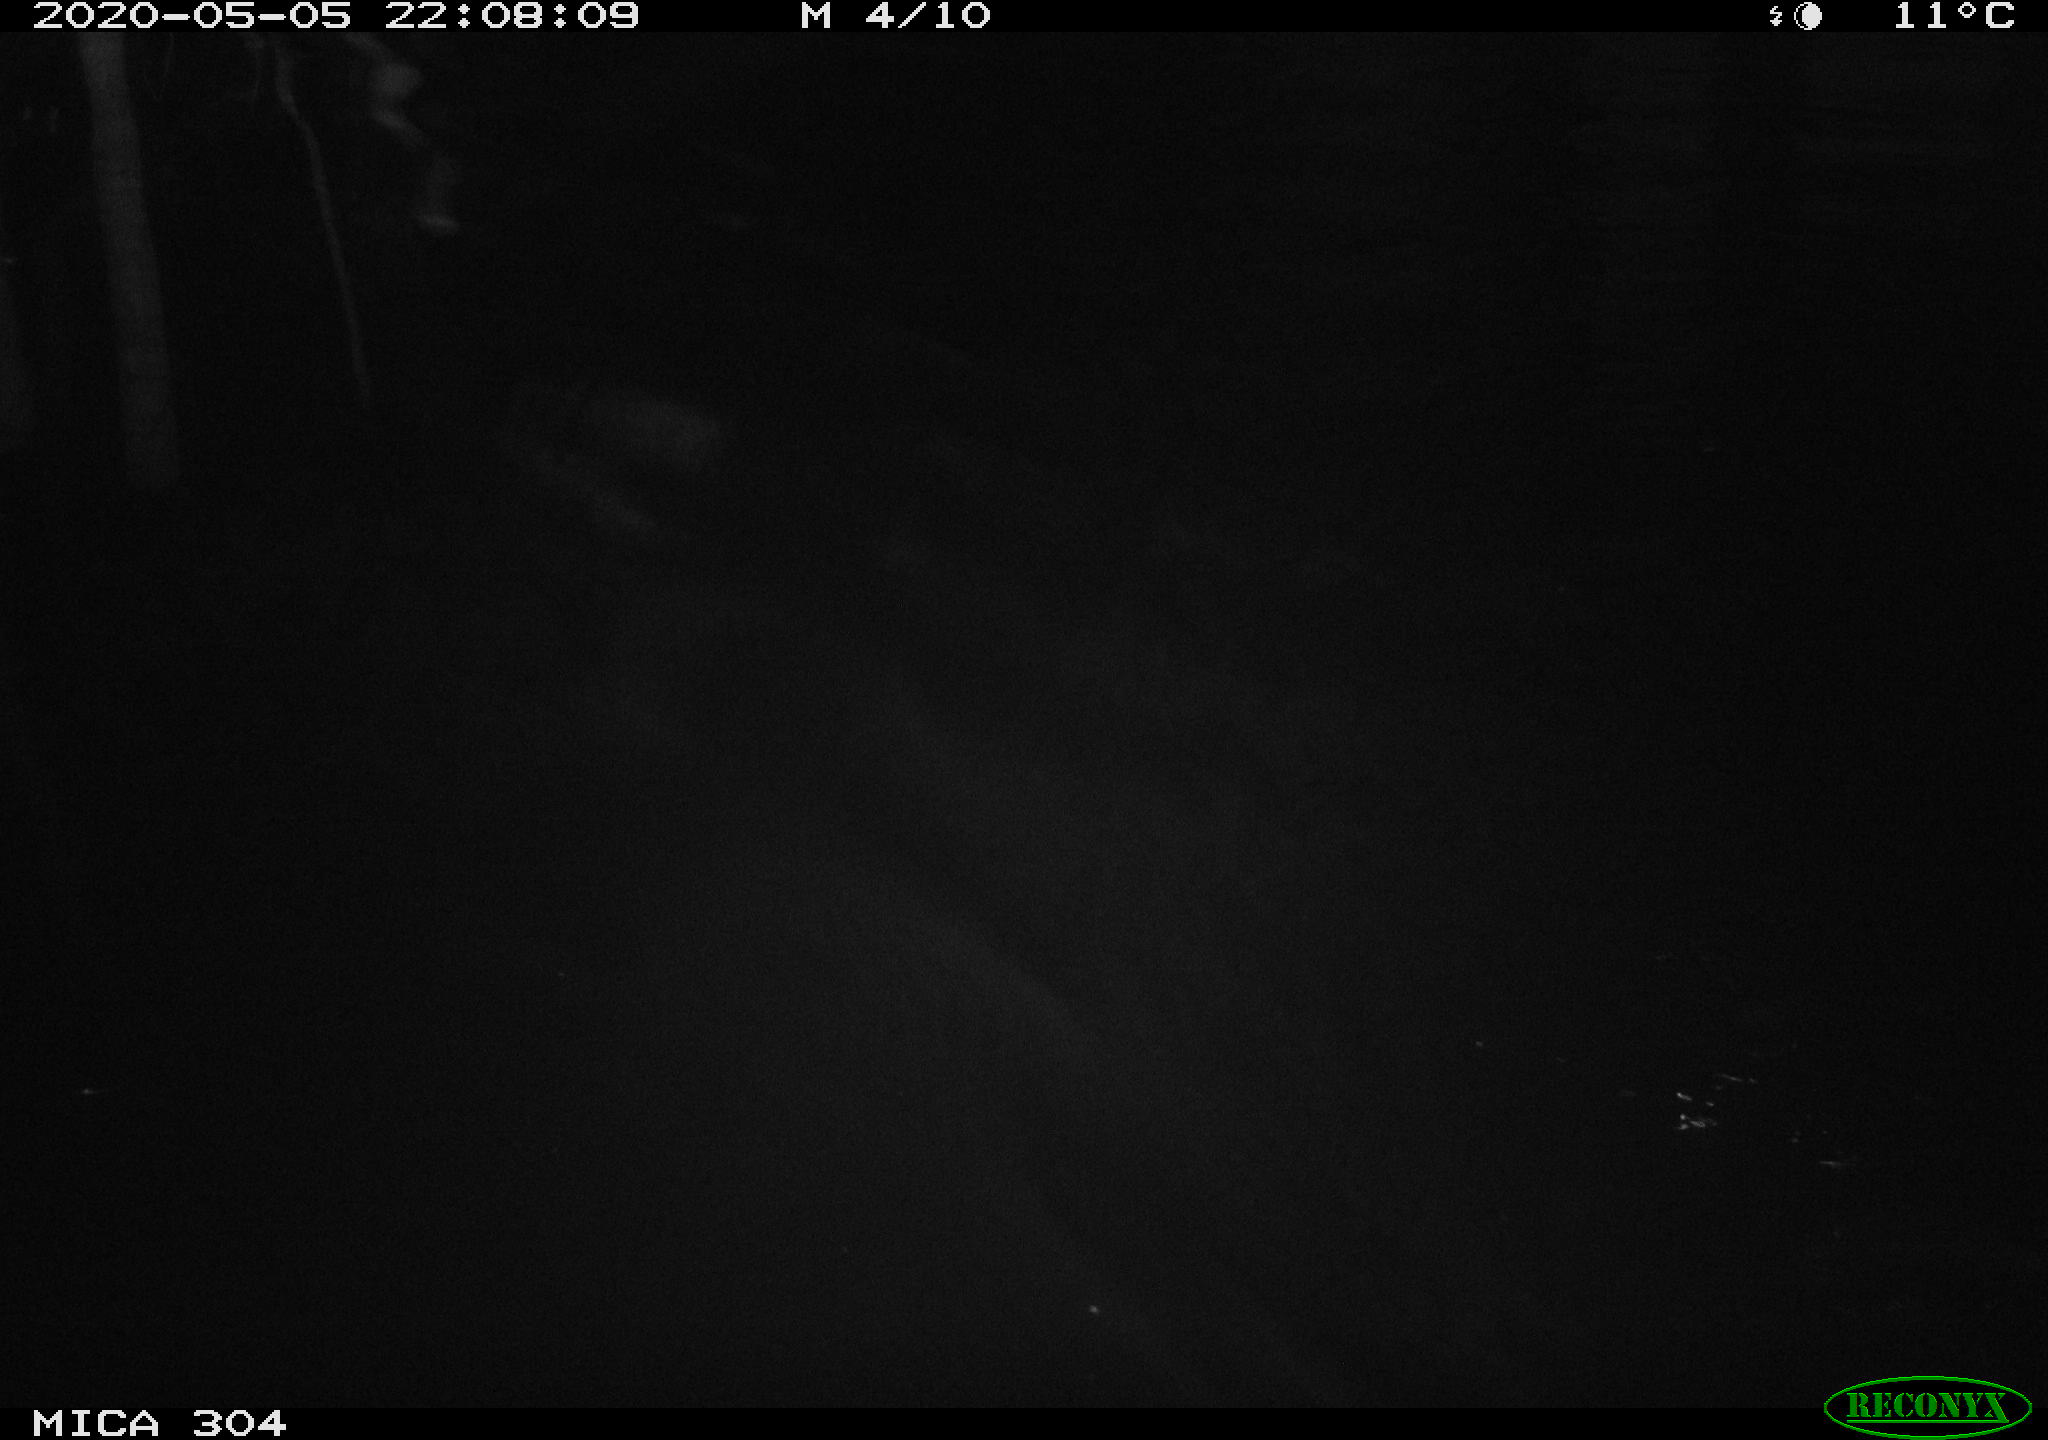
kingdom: Animalia
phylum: Chordata
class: Aves
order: Anseriformes
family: Anatidae
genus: Anas
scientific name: Anas platyrhynchos
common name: Mallard
